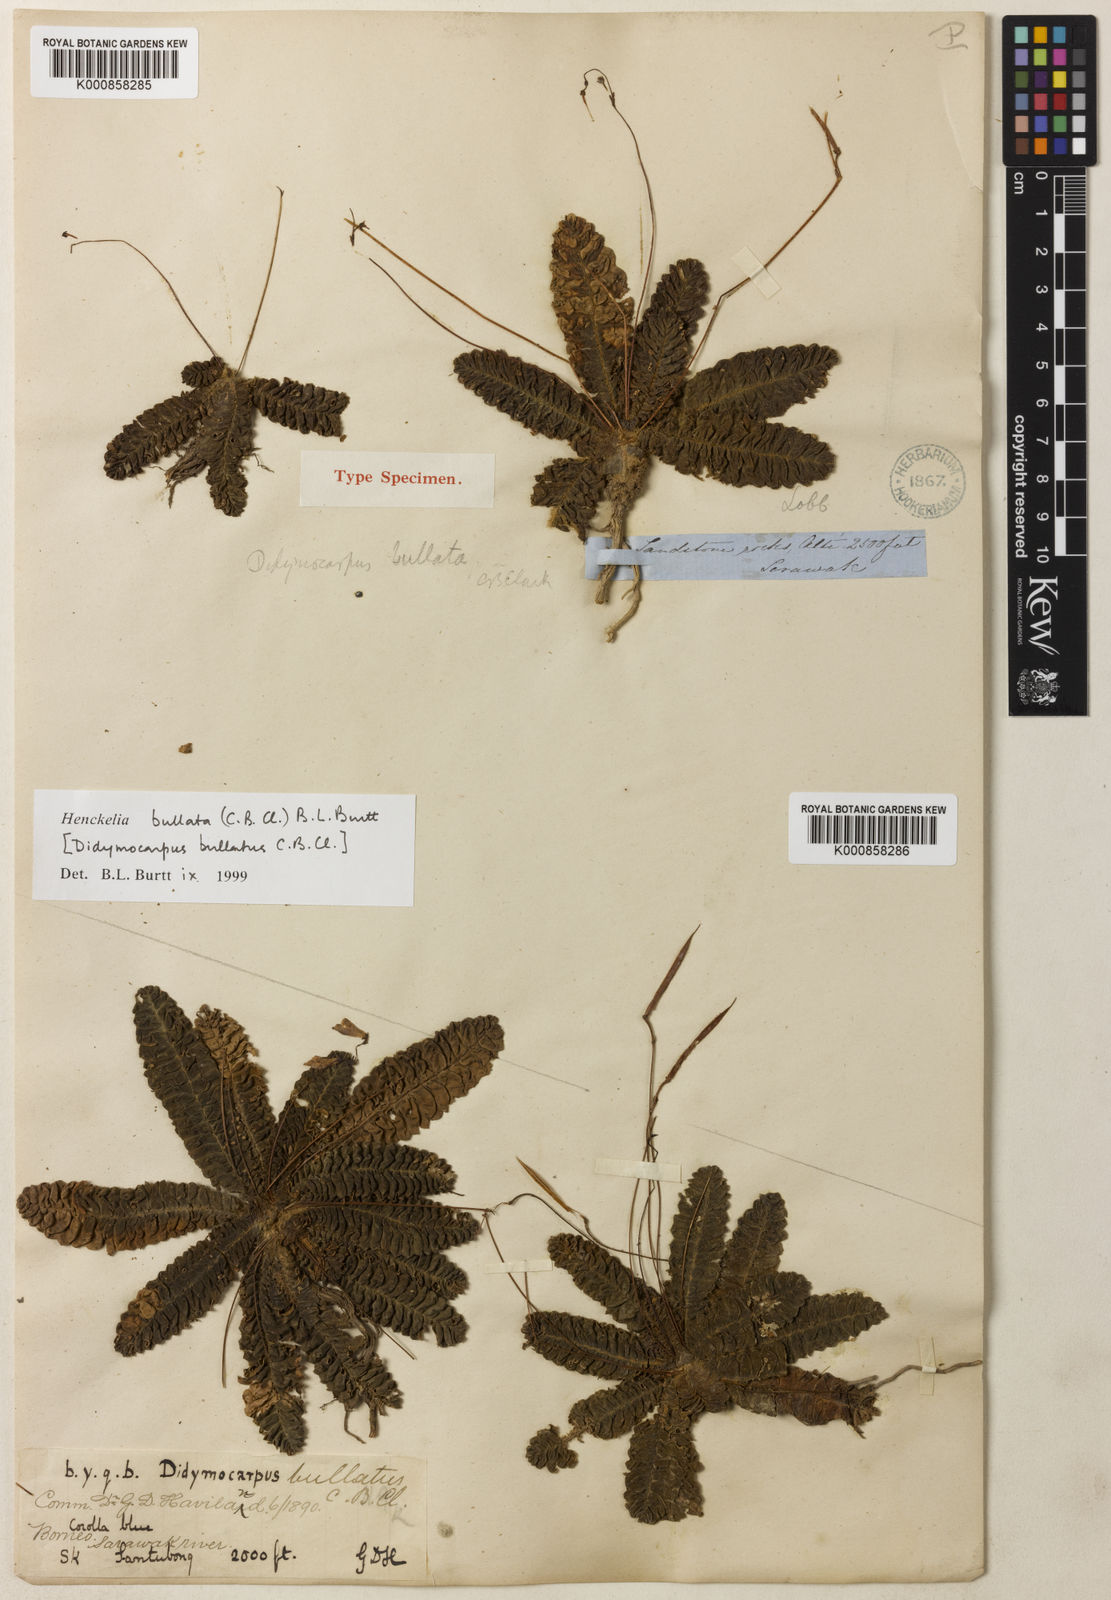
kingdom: Plantae
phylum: Tracheophyta
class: Magnoliopsida
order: Lamiales
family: Gesneriaceae
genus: Codonoboea
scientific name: Codonoboea bullata
